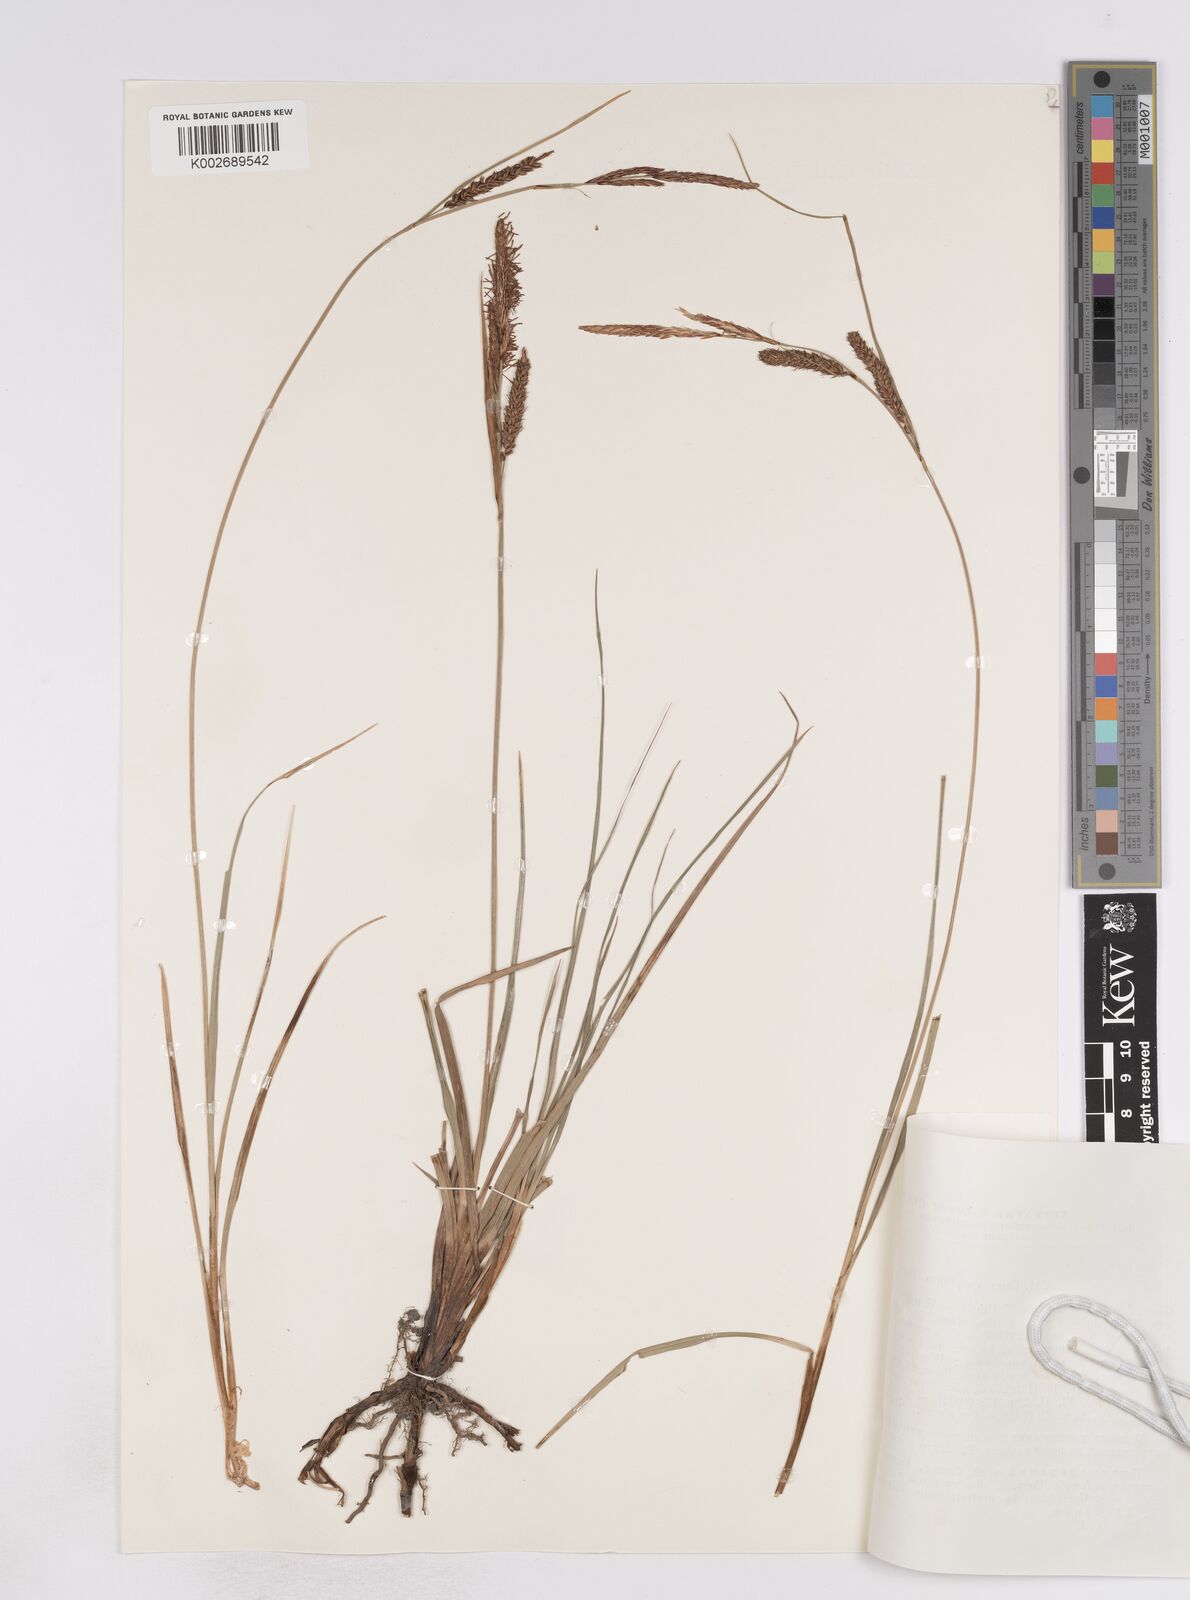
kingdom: Plantae
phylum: Tracheophyta
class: Liliopsida
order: Poales
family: Cyperaceae
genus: Carex
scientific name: Carex flacca
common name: Glaucous sedge
